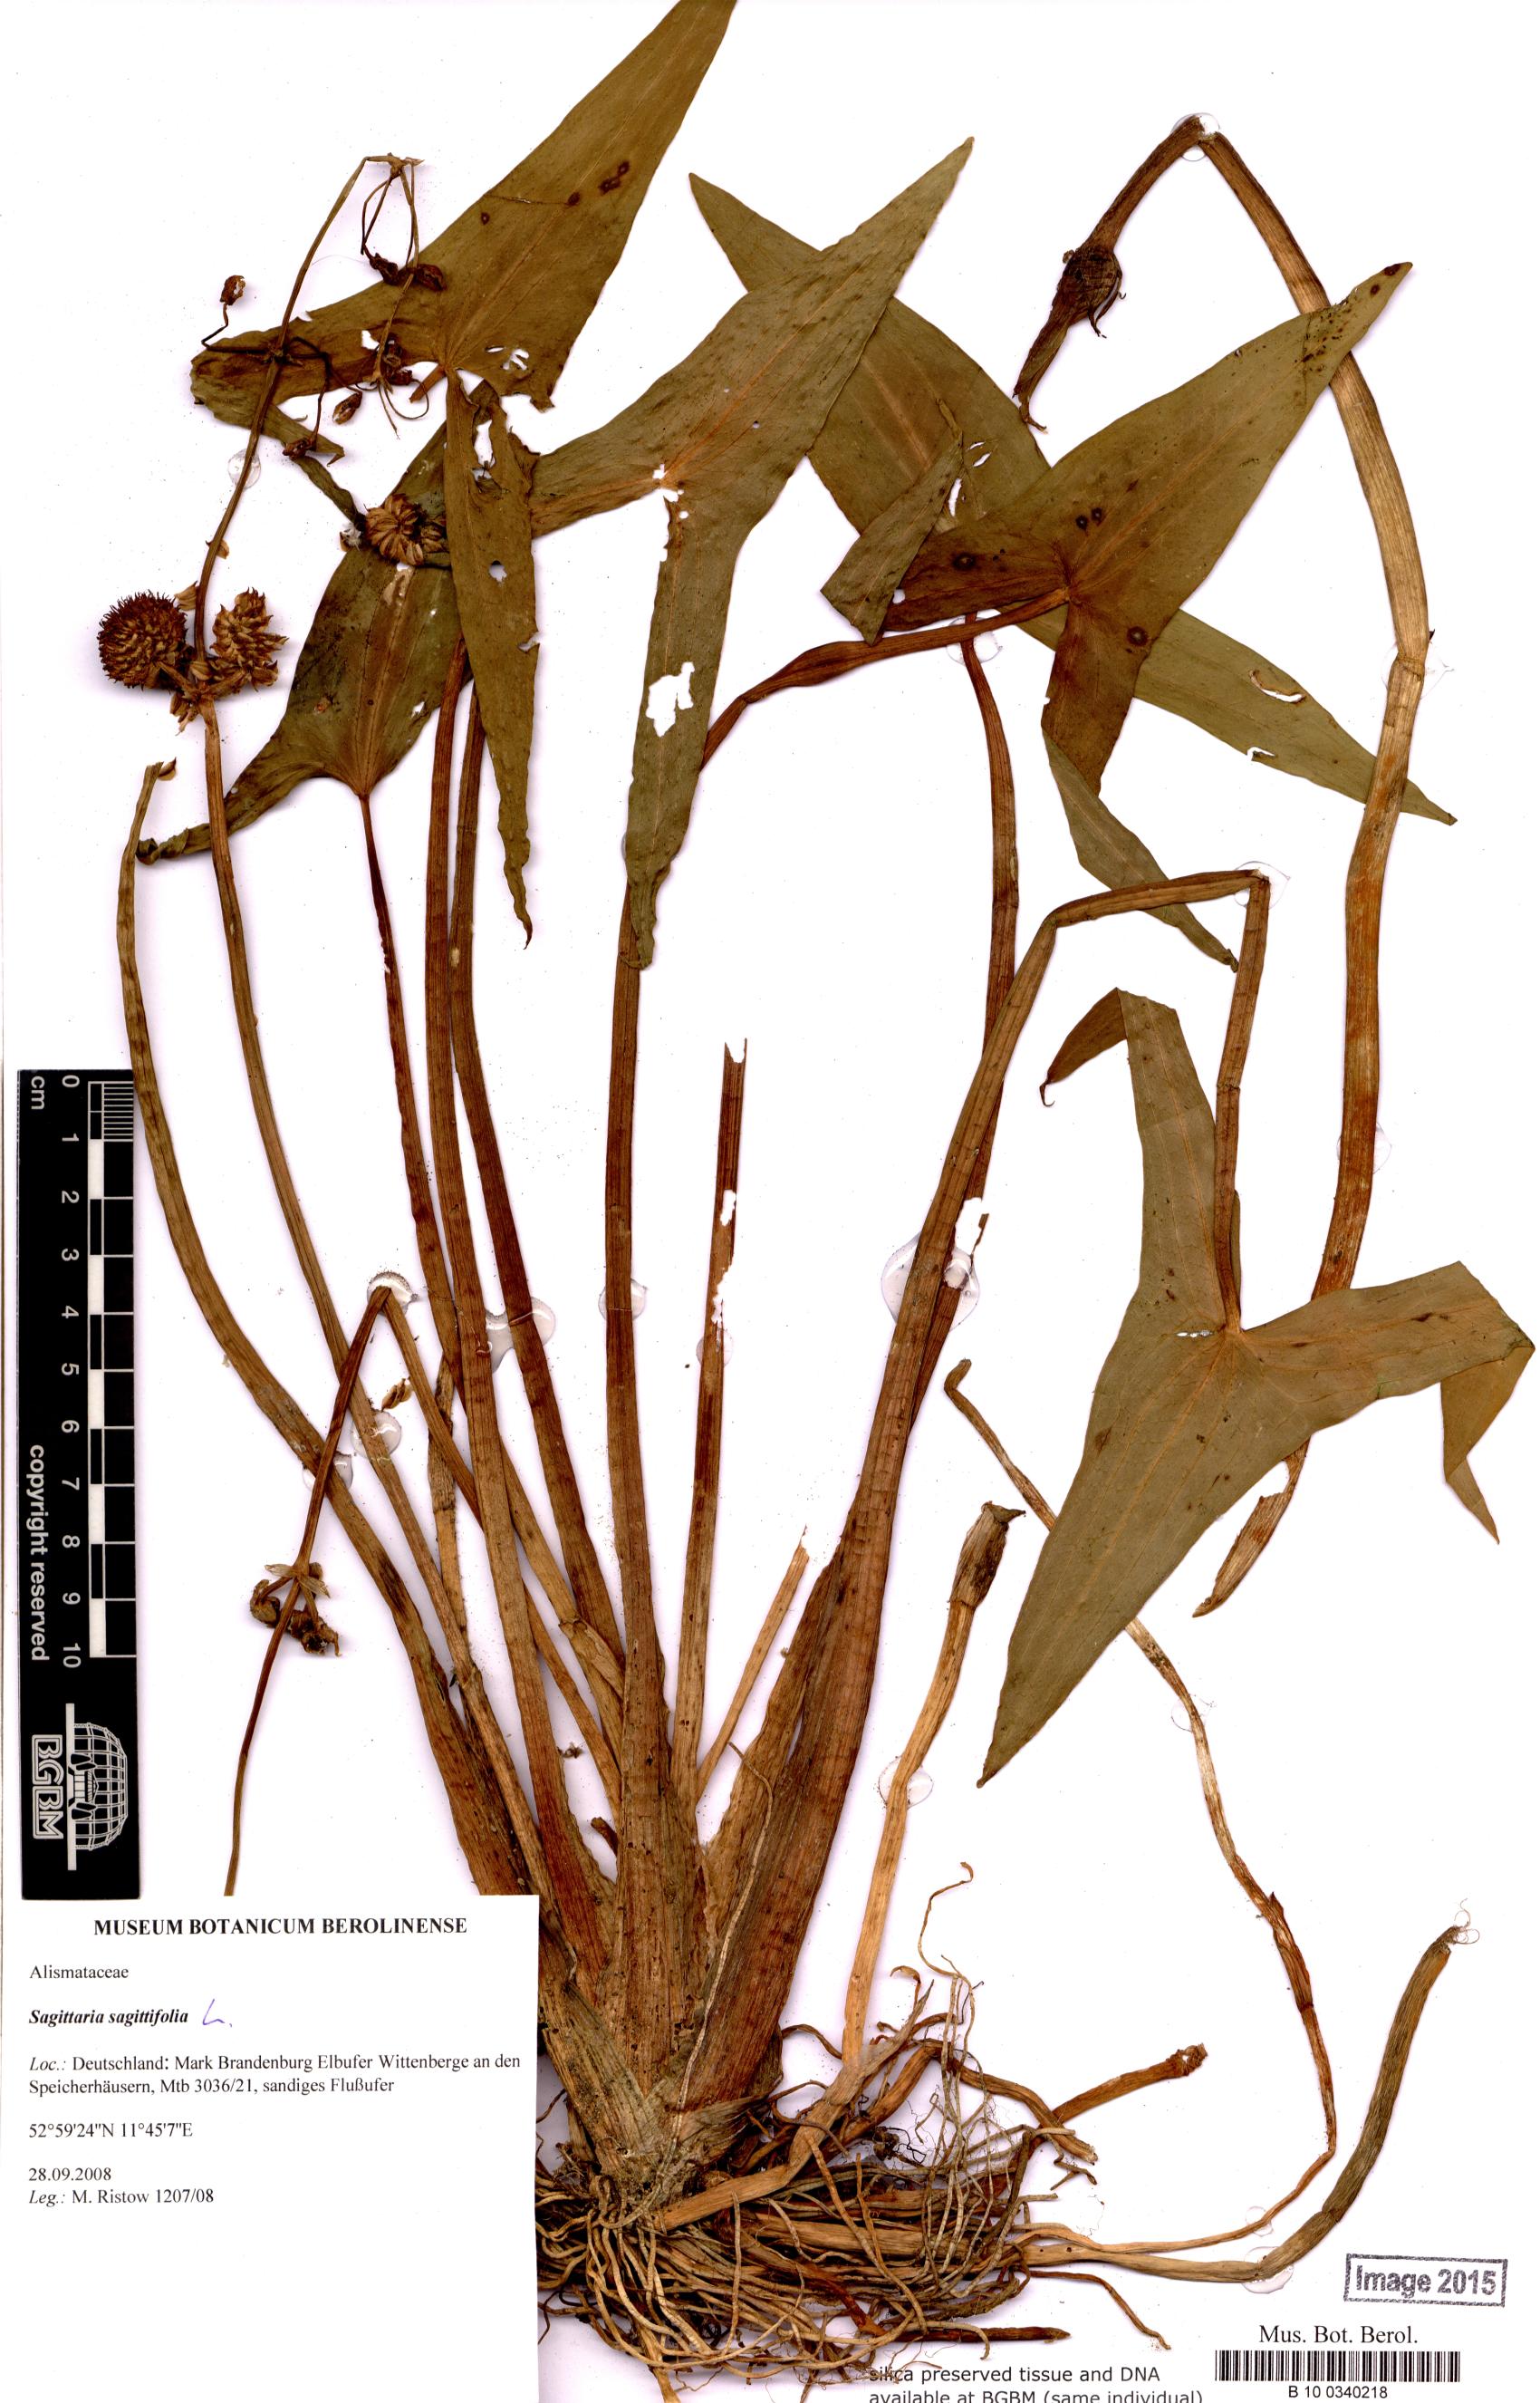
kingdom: Plantae
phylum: Tracheophyta
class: Liliopsida
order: Alismatales
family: Alismataceae
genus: Sagittaria
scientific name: Sagittaria sagittifolia
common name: Arrowhead
